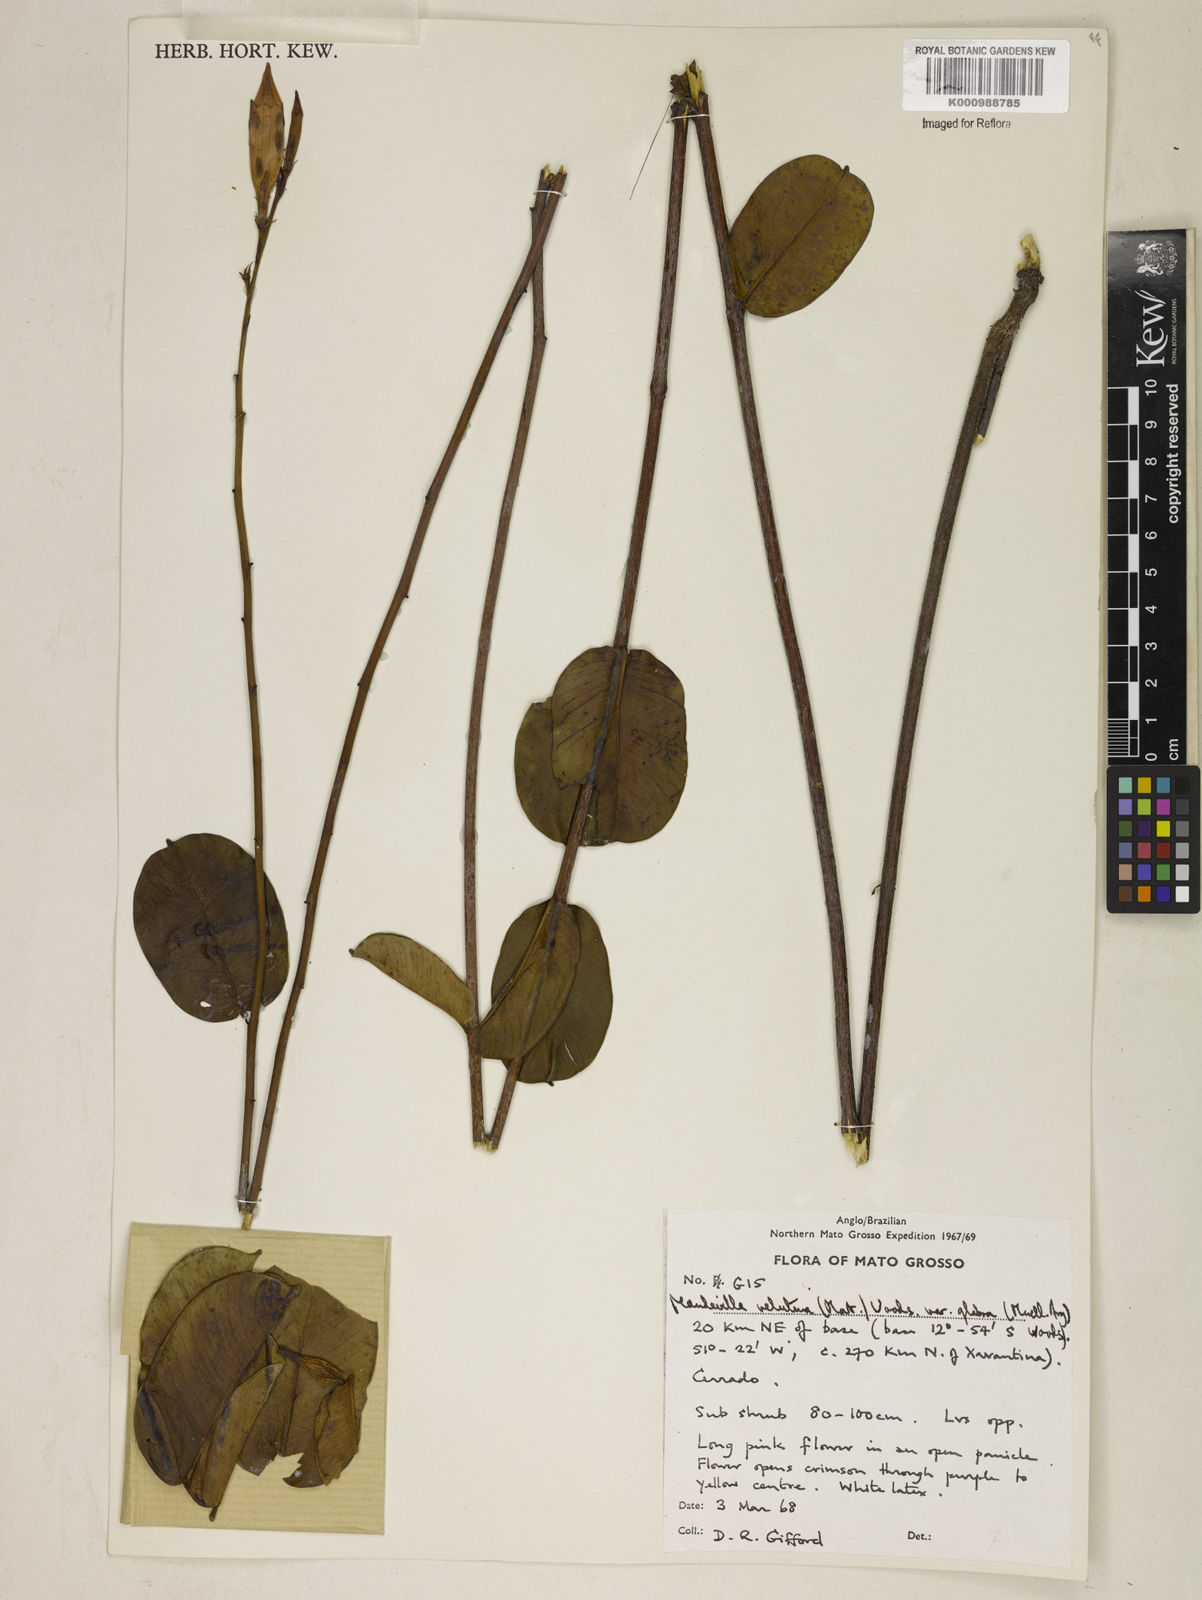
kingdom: Plantae
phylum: Tracheophyta
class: Magnoliopsida
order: Gentianales
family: Apocynaceae
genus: Mandevilla
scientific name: Mandevilla pohliana
